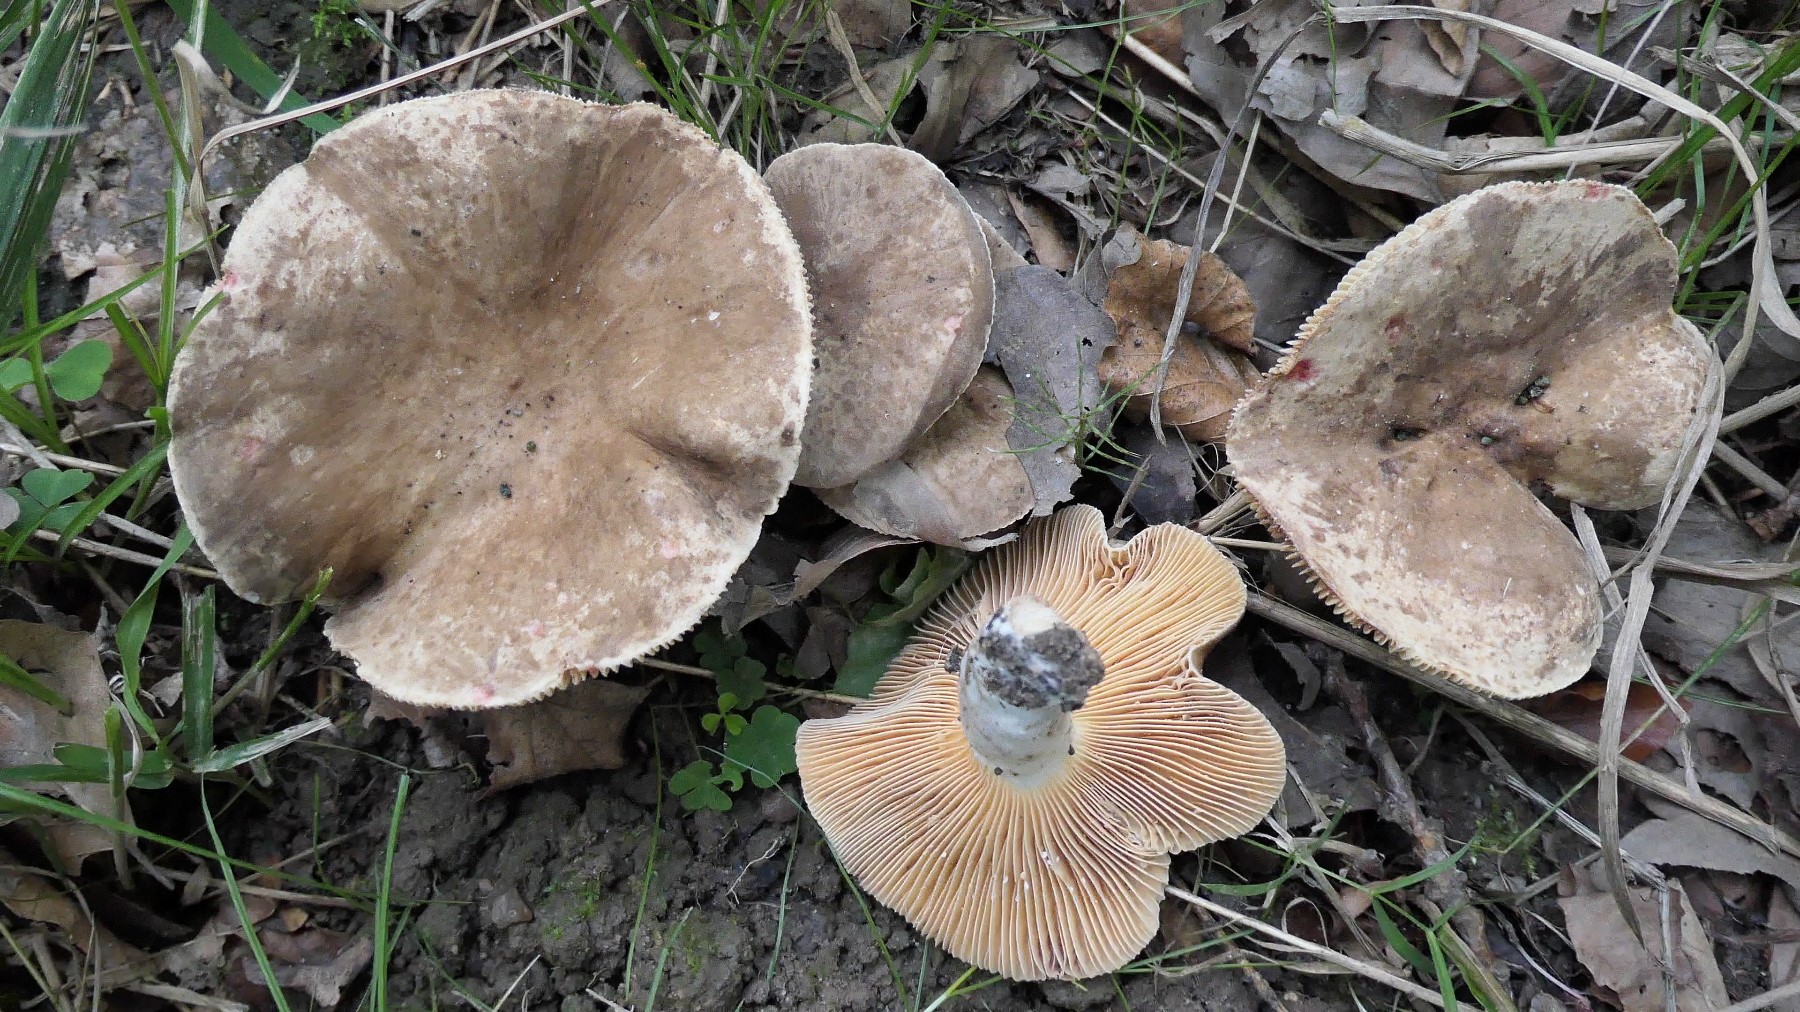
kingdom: Fungi
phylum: Basidiomycota
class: Agaricomycetes
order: Russulales
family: Russulaceae
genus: Lactarius
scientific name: Lactarius azonites
